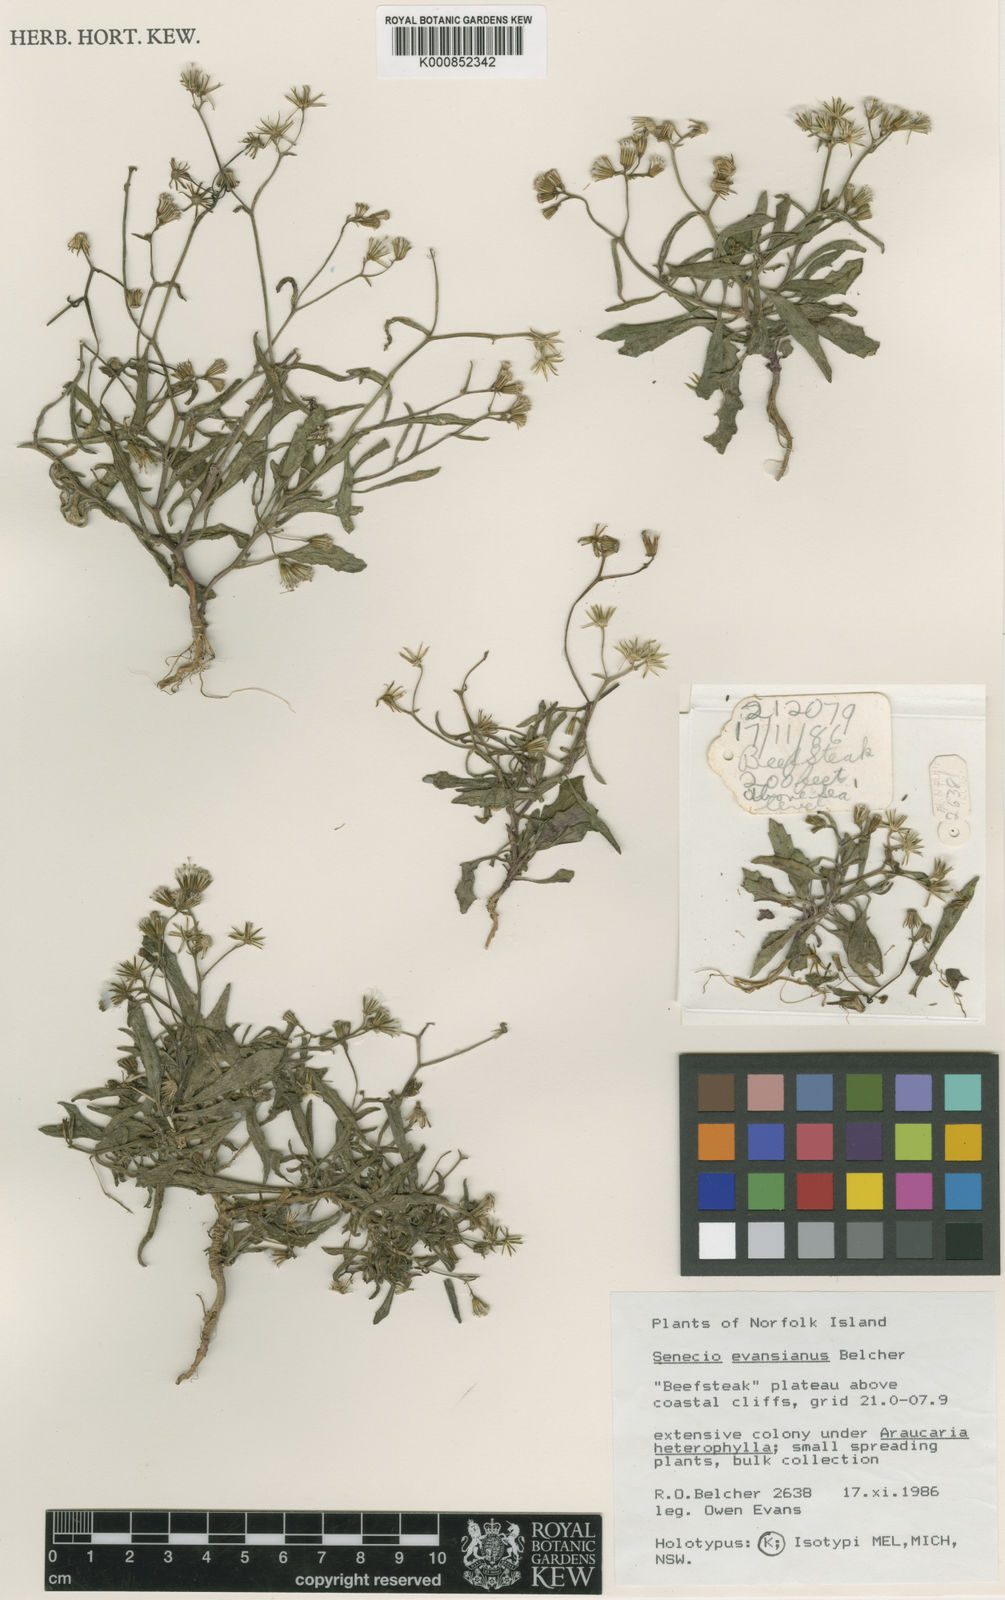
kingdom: Plantae
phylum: Tracheophyta
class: Magnoliopsida
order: Asterales
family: Asteraceae
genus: Senecio
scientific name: Senecio evansianus
